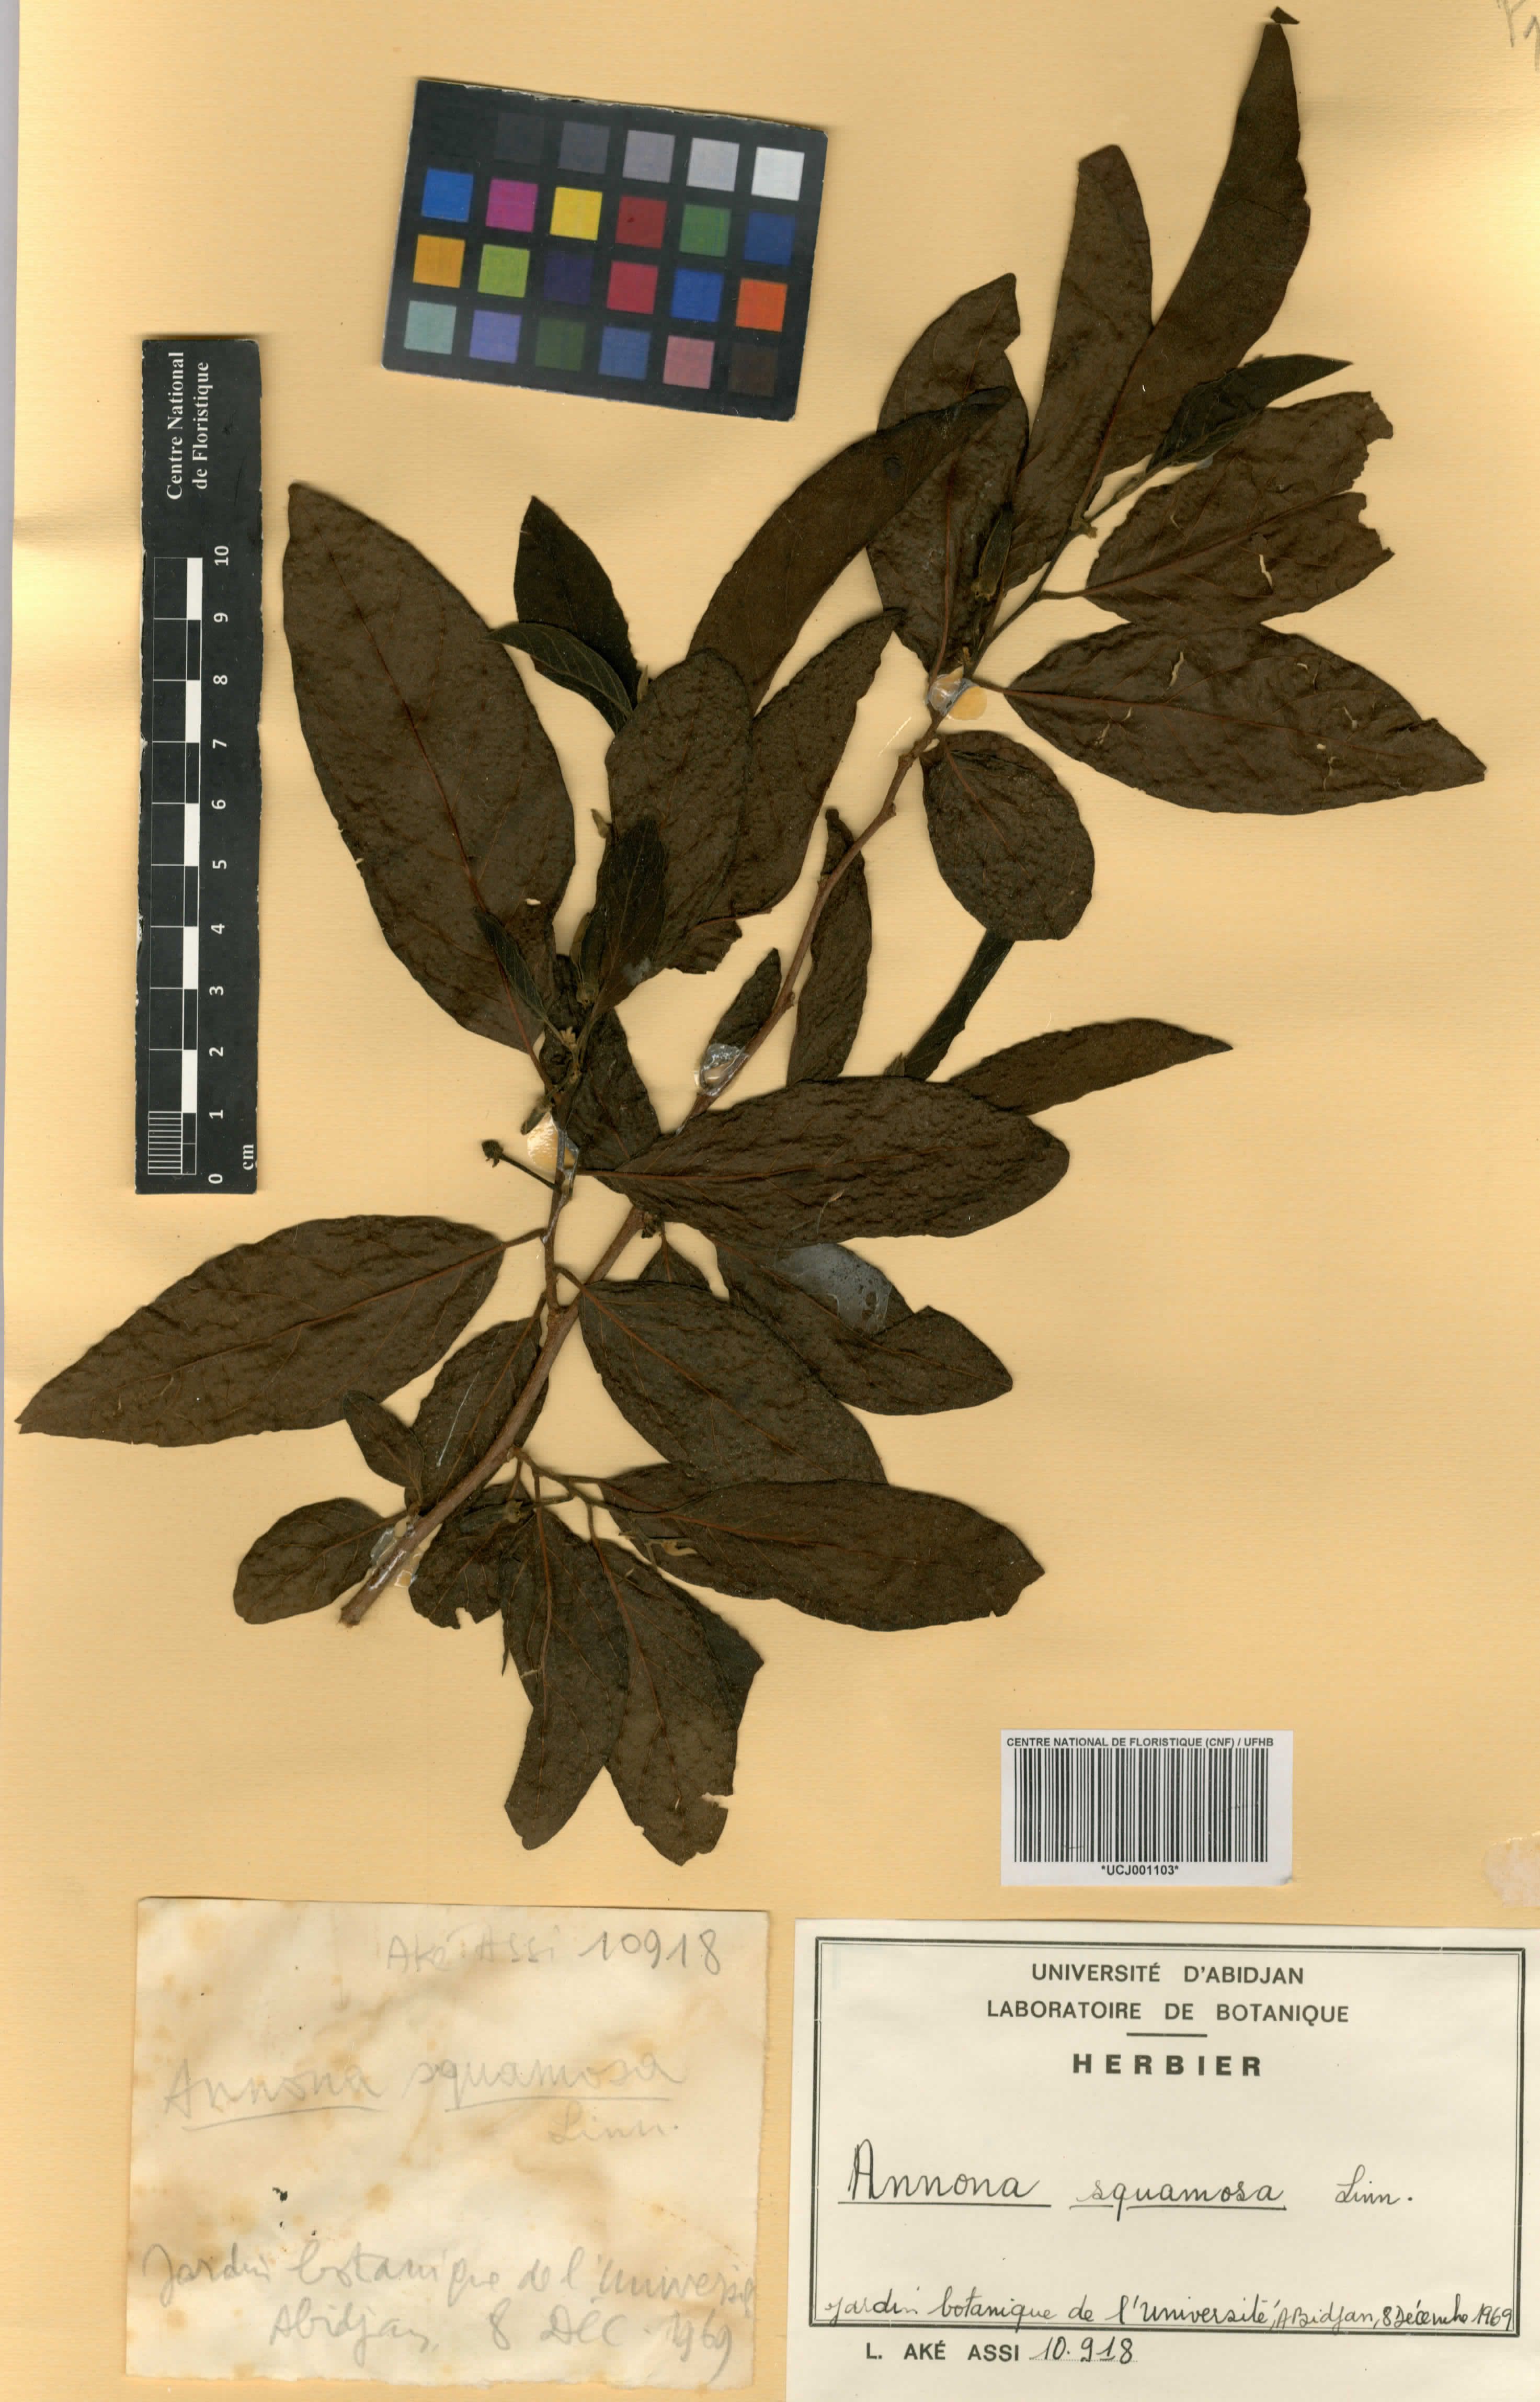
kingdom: Plantae
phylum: Tracheophyta
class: Magnoliopsida
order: Magnoliales
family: Annonaceae
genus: Annona
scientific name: Annona squamosa
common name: Custard-apple
